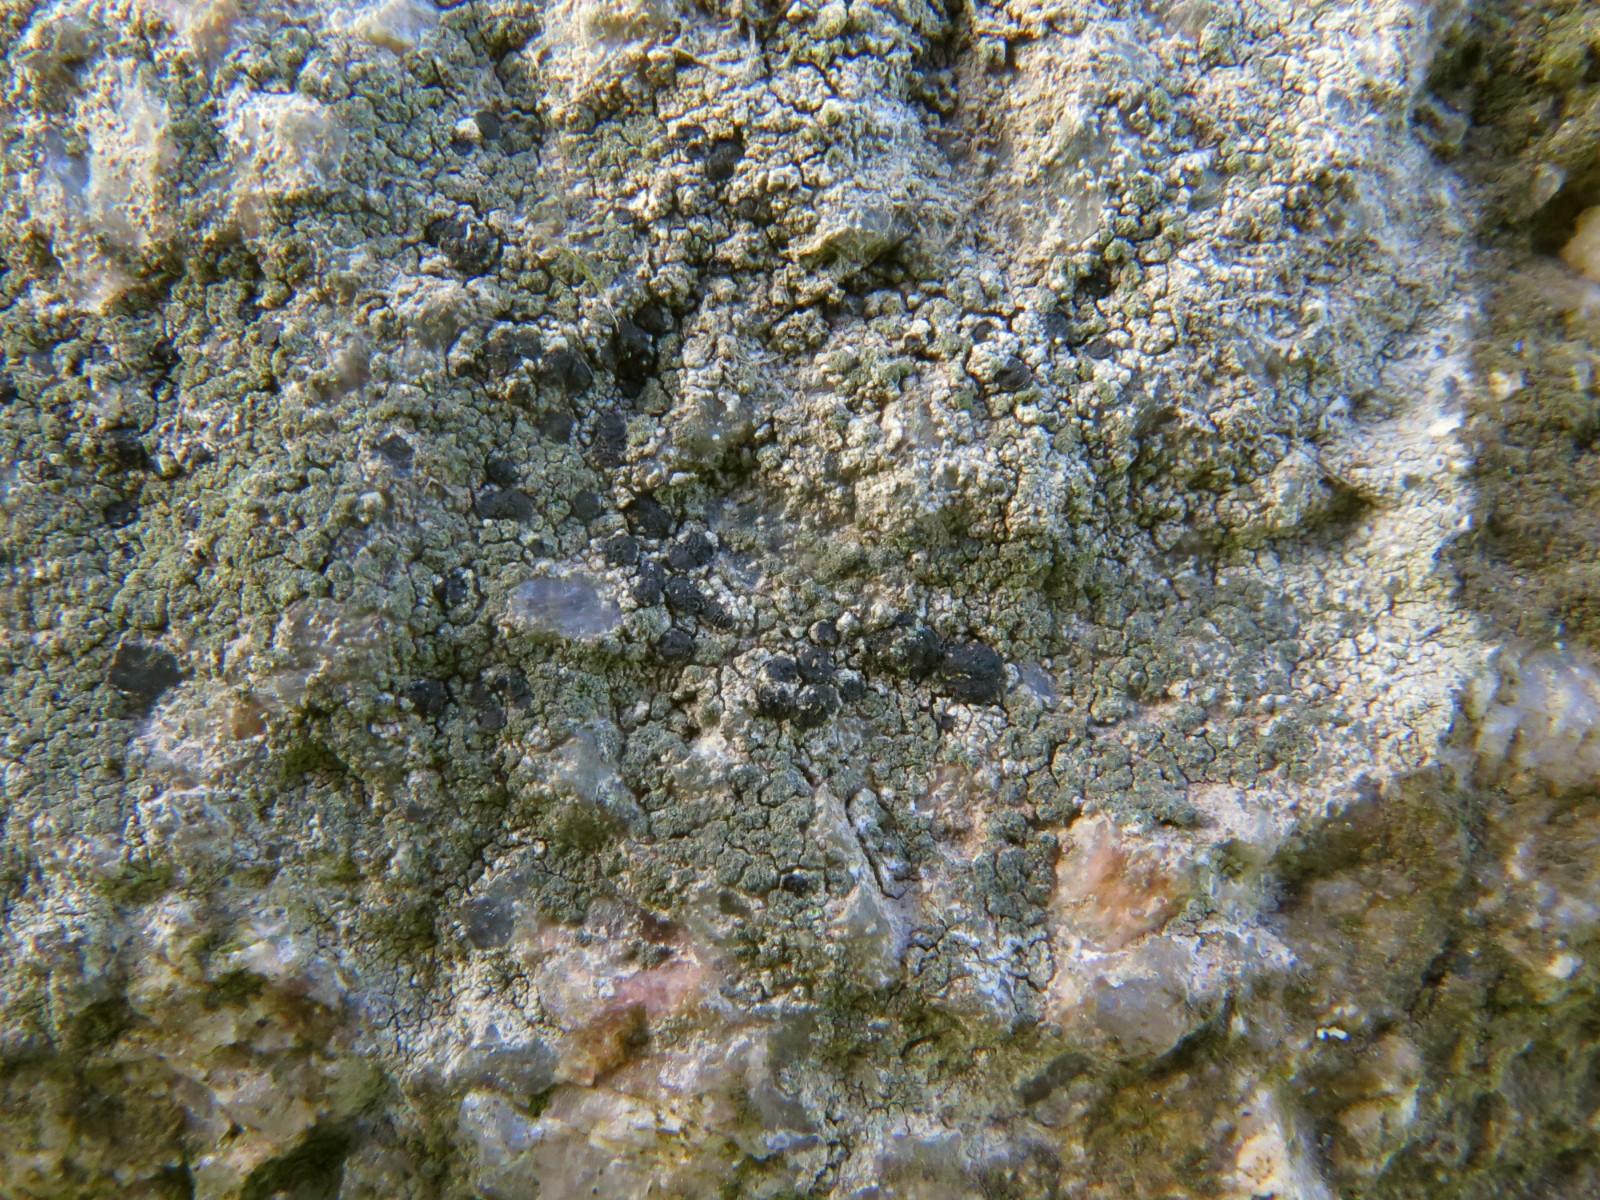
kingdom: Fungi
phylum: Ascomycota
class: Lecanoromycetes
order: Lecanorales
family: Lecanoraceae
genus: Lecidella
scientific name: Lecidella scabra
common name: skurvet skivelav
